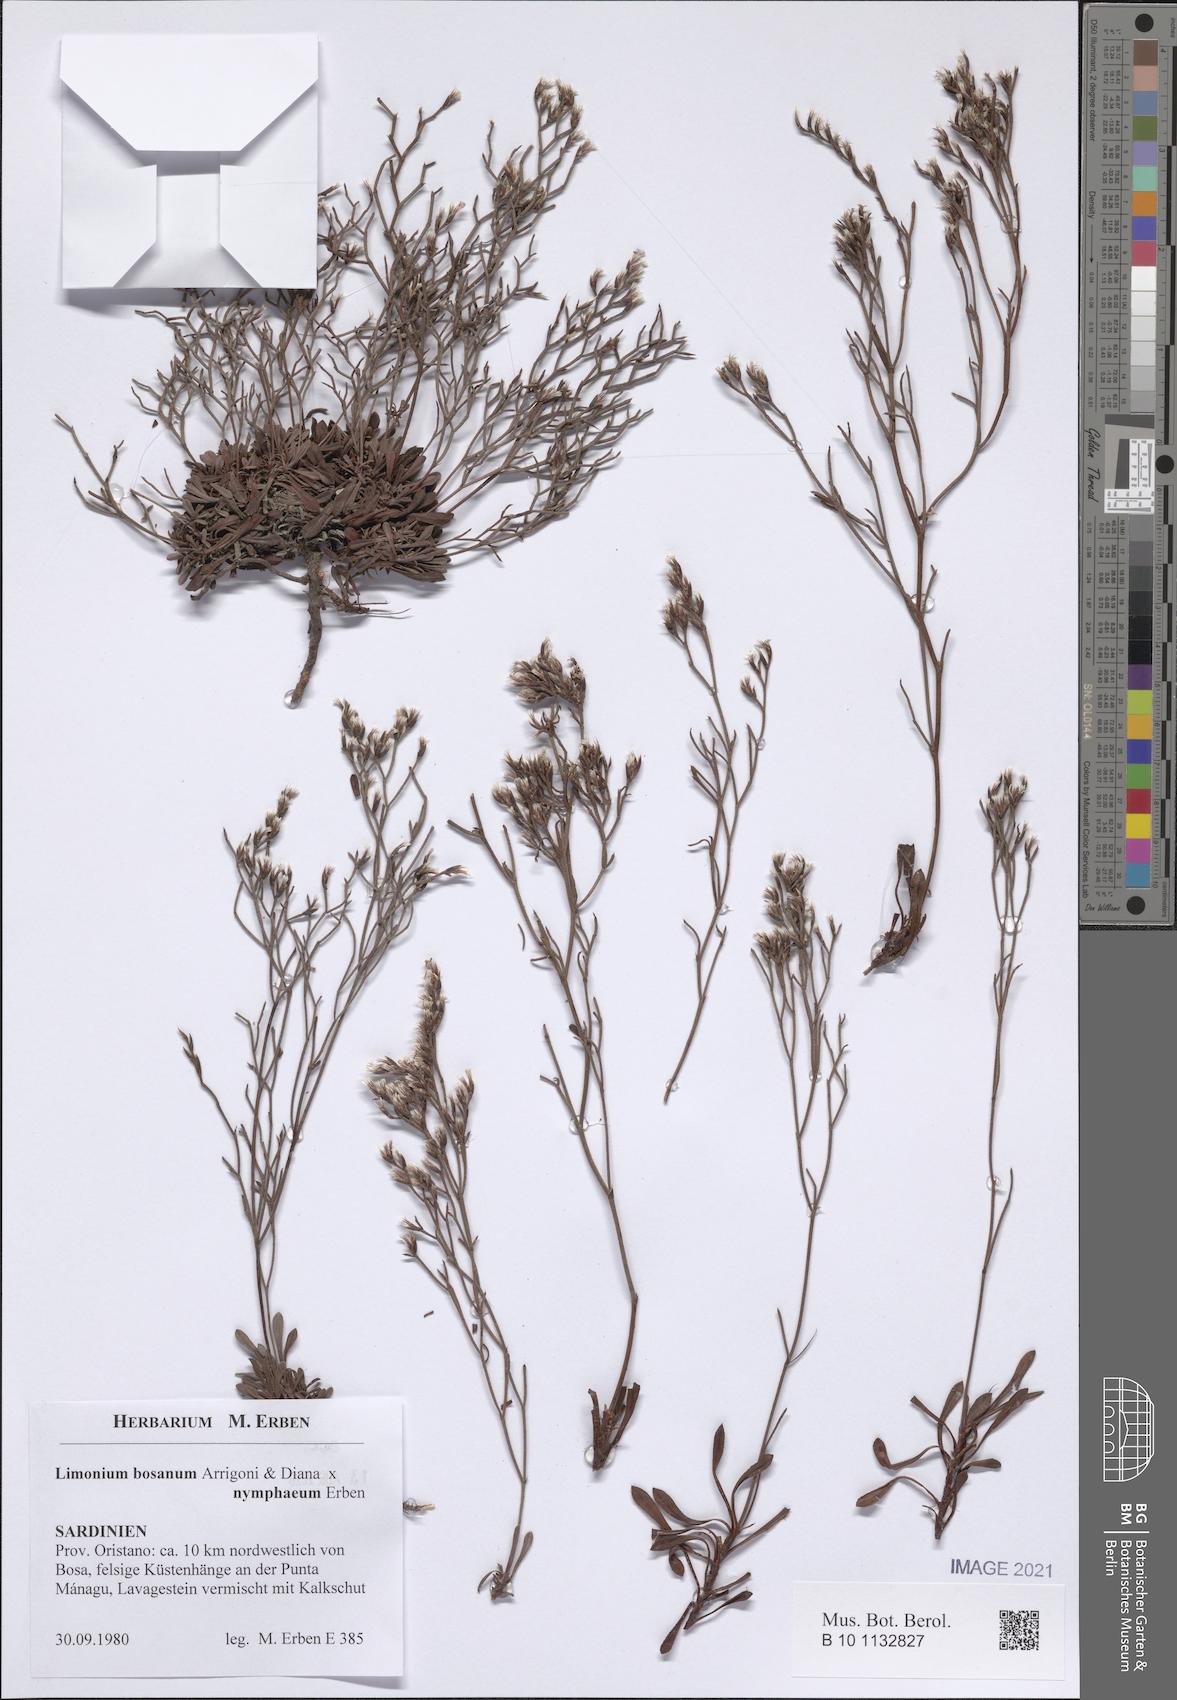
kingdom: Plantae
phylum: Tracheophyta
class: Magnoliopsida
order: Caryophyllales
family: Plumbaginaceae
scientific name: Plumbaginaceae
